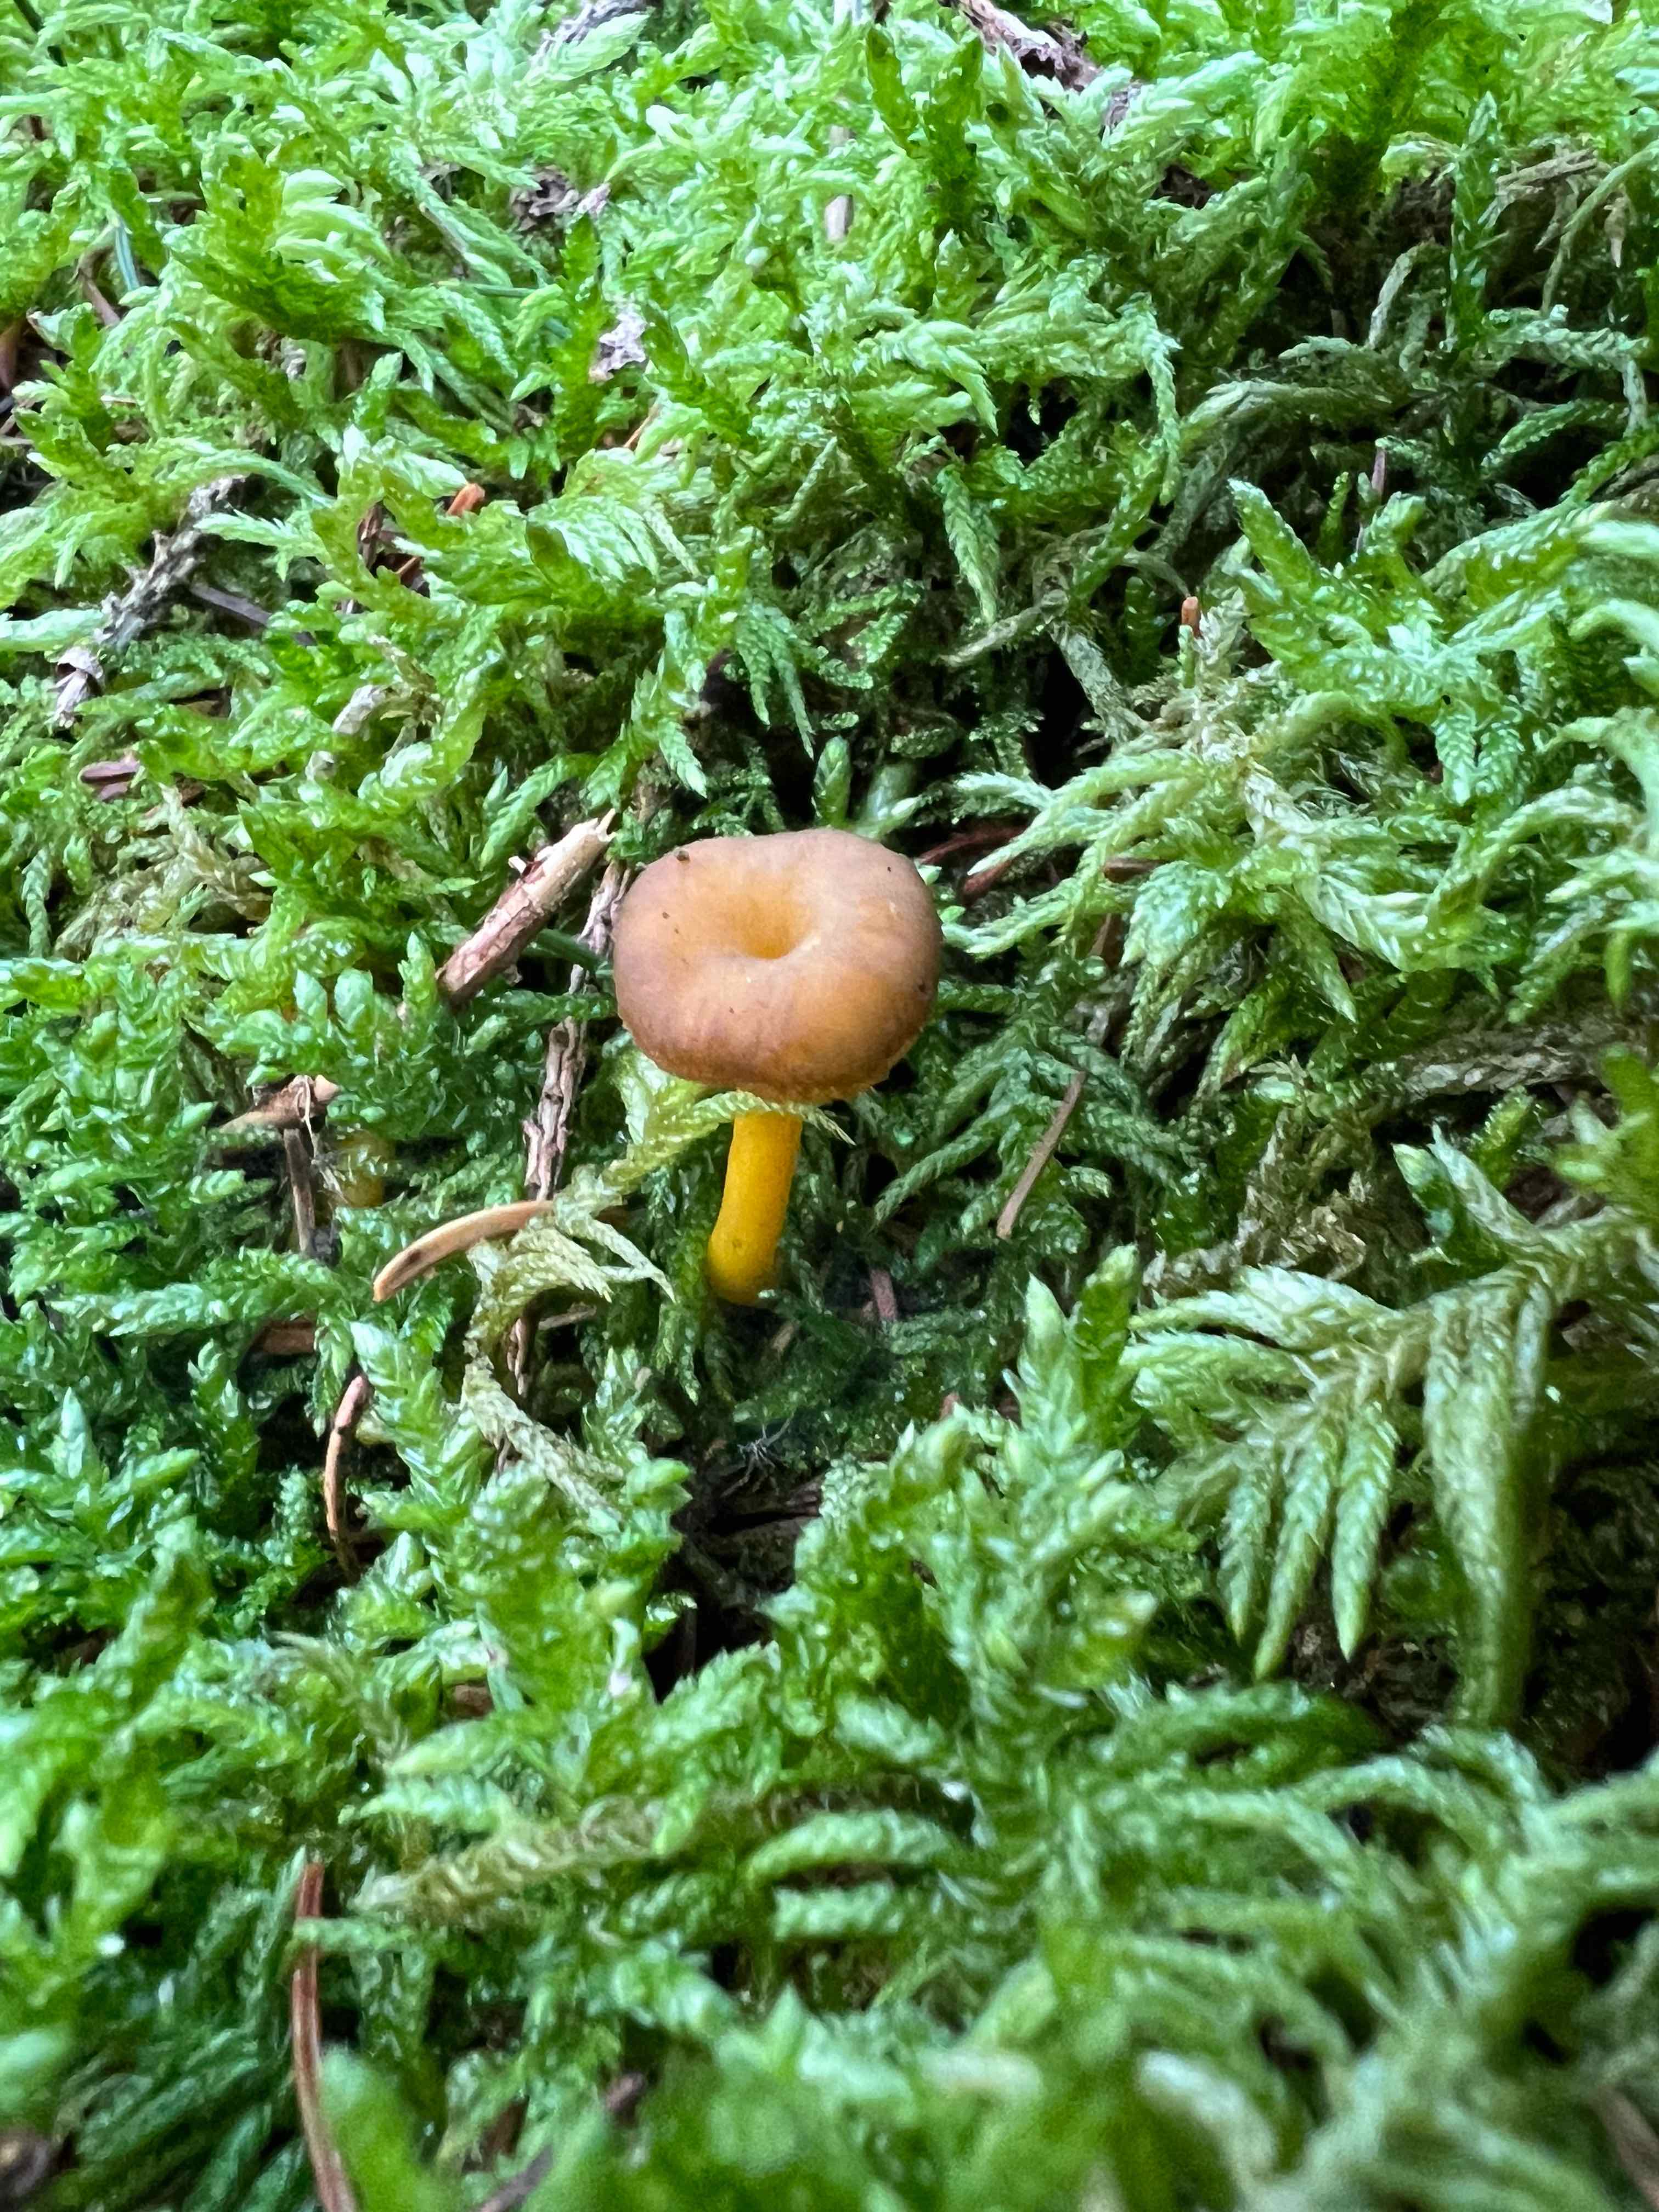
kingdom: Fungi
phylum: Basidiomycota
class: Agaricomycetes
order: Cantharellales
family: Hydnaceae
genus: Craterellus
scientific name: Craterellus tubaeformis
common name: tragt-kantarel
